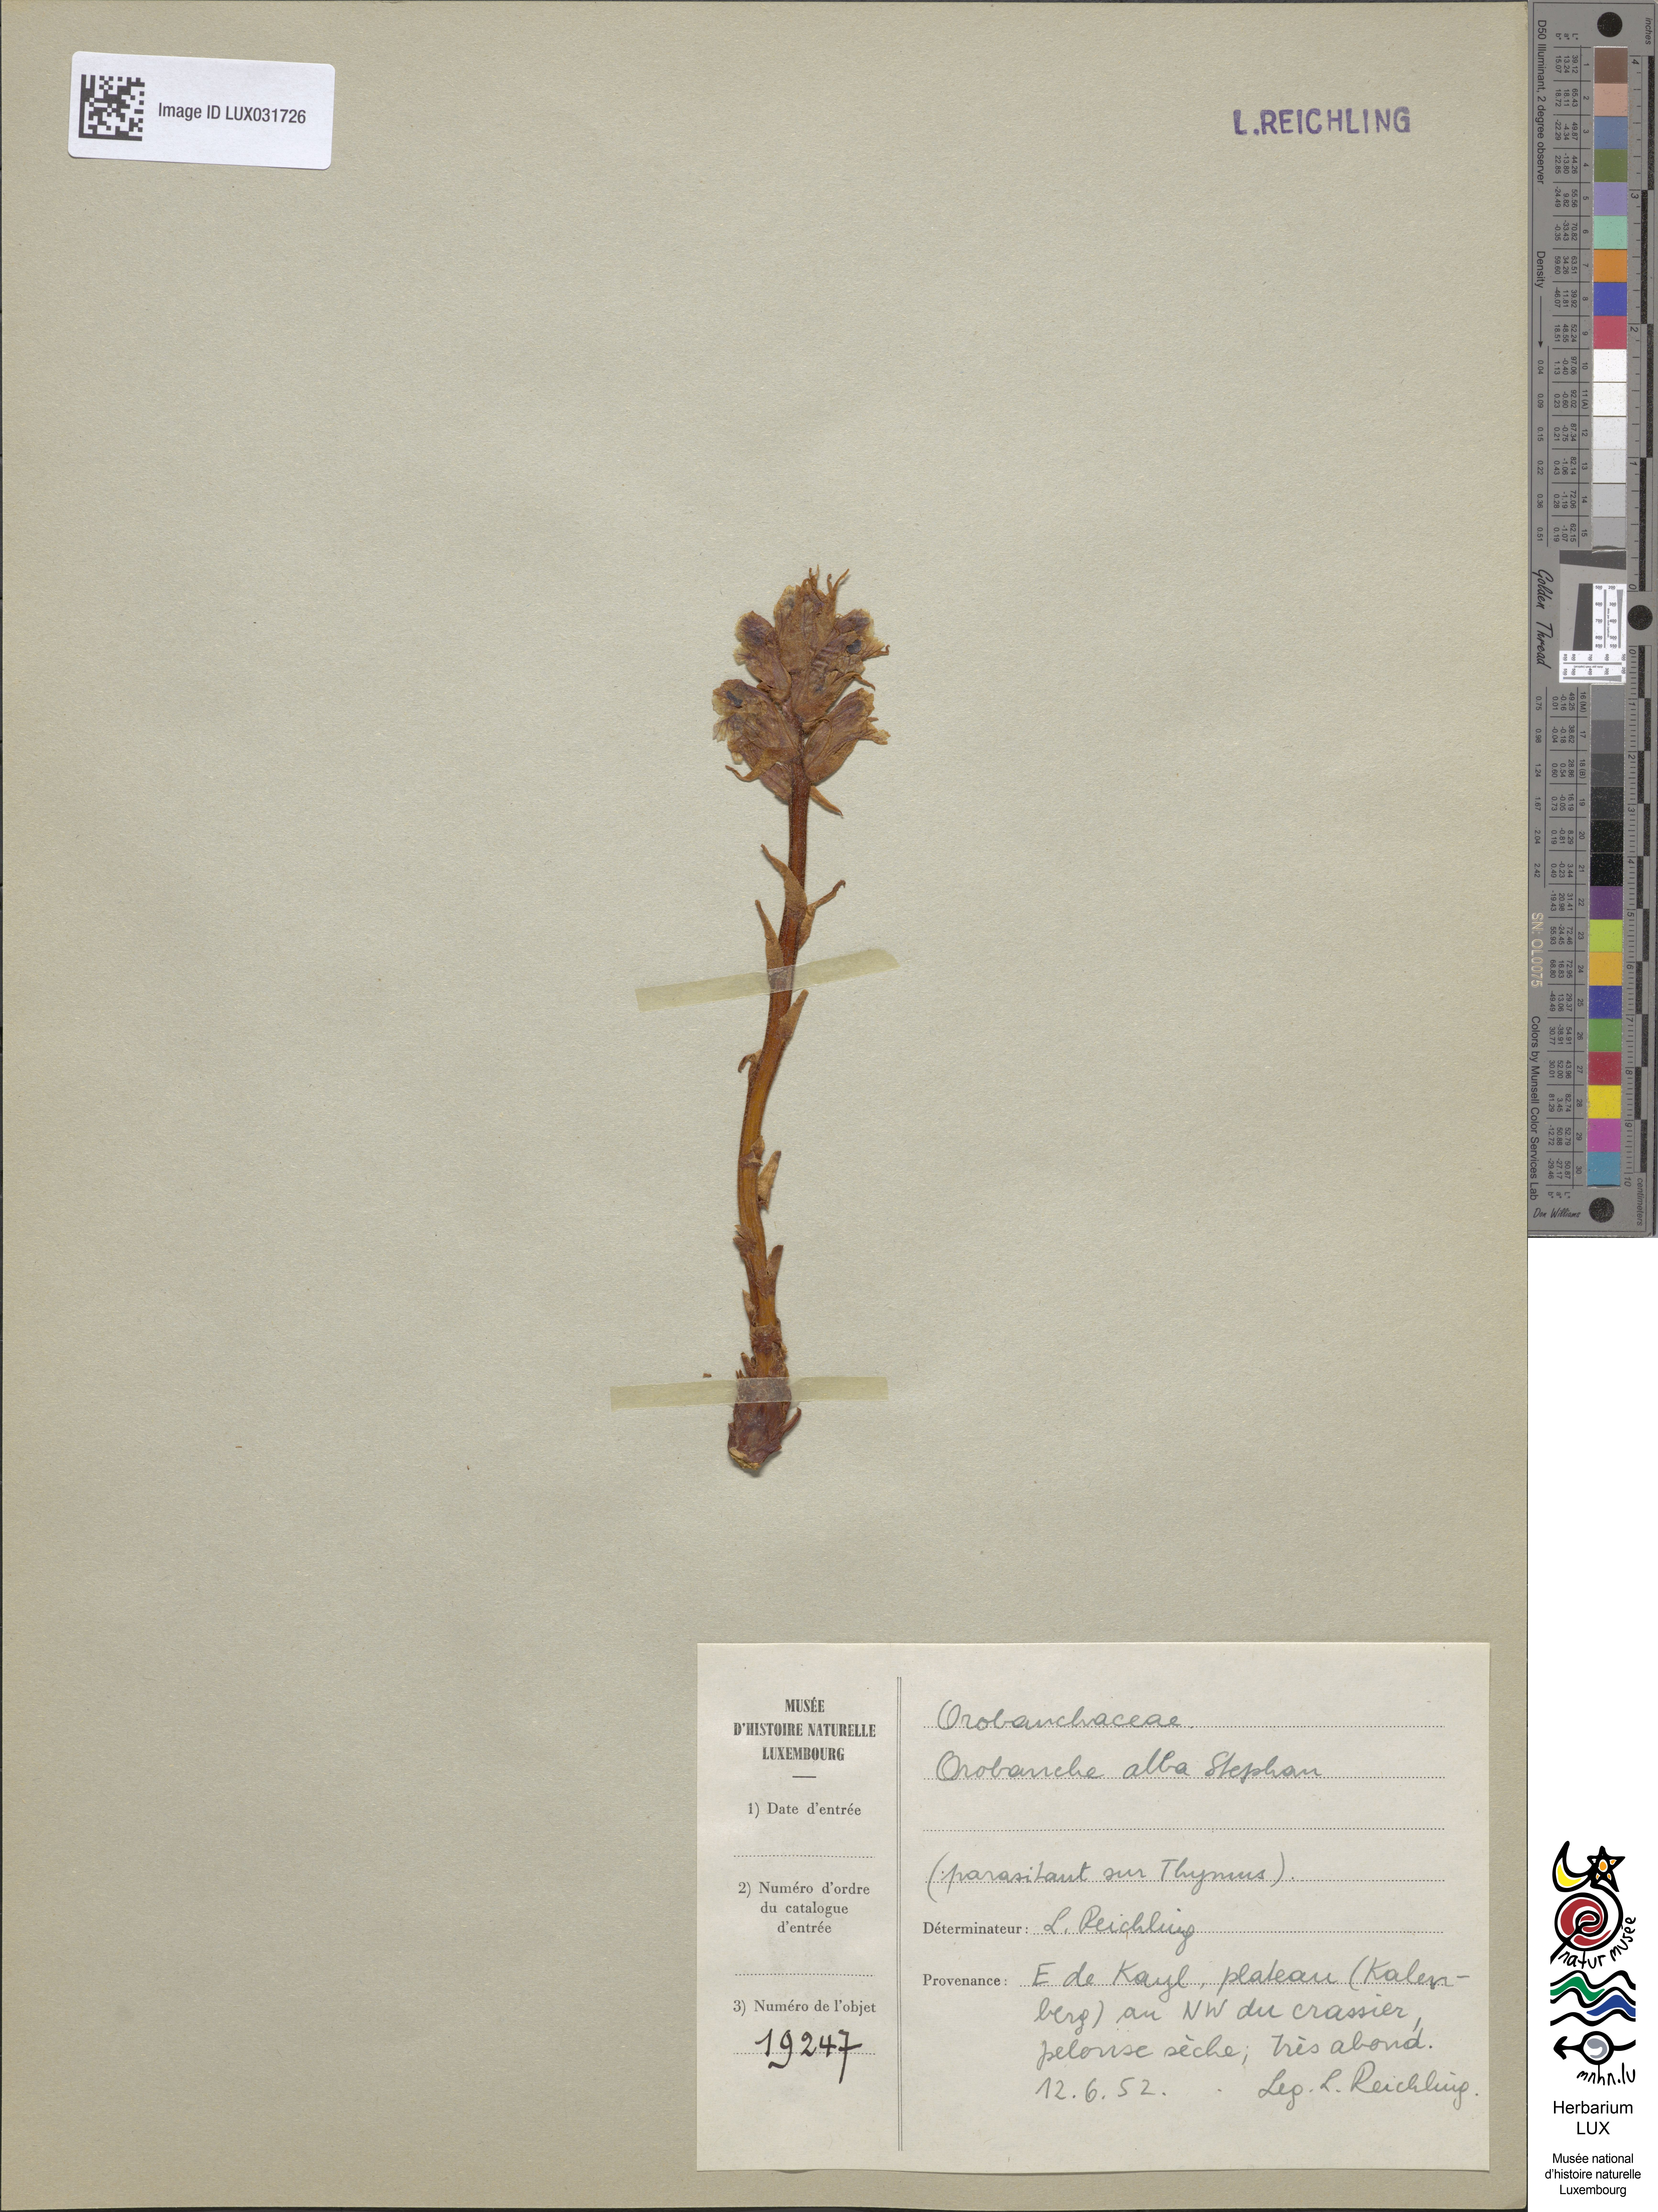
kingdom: Plantae
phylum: Tracheophyta
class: Magnoliopsida
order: Lamiales
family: Orobanchaceae
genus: Orobanche
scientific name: Orobanche alba
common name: Thyme broomrape
